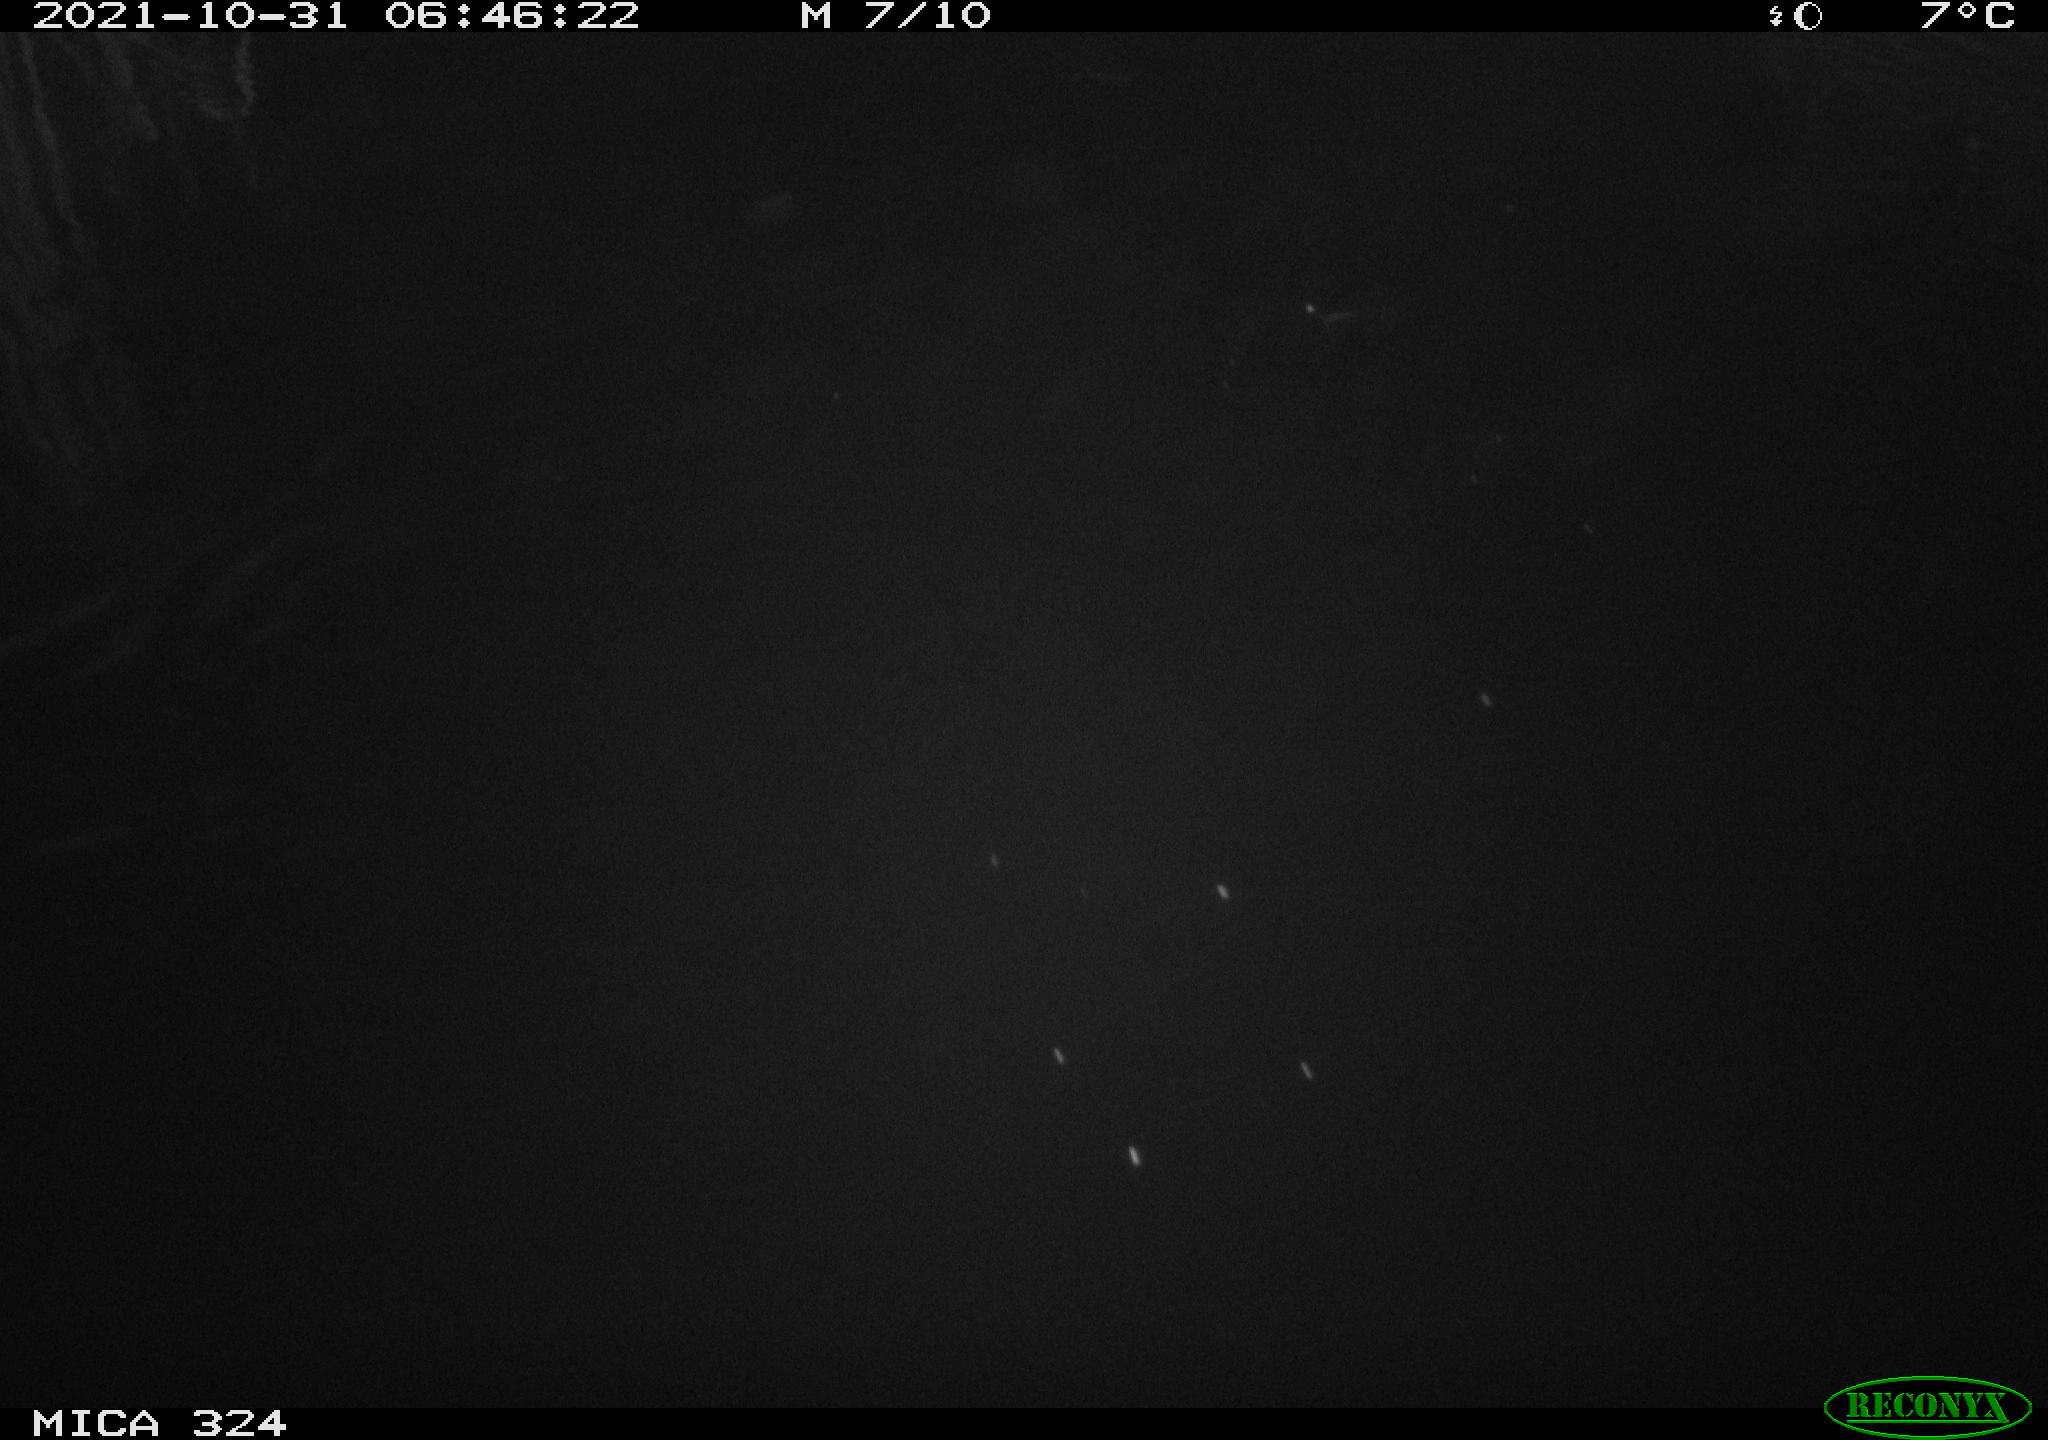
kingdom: Animalia
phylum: Chordata
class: Mammalia
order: Rodentia
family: Cricetidae
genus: Ondatra
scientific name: Ondatra zibethicus
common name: Muskrat
